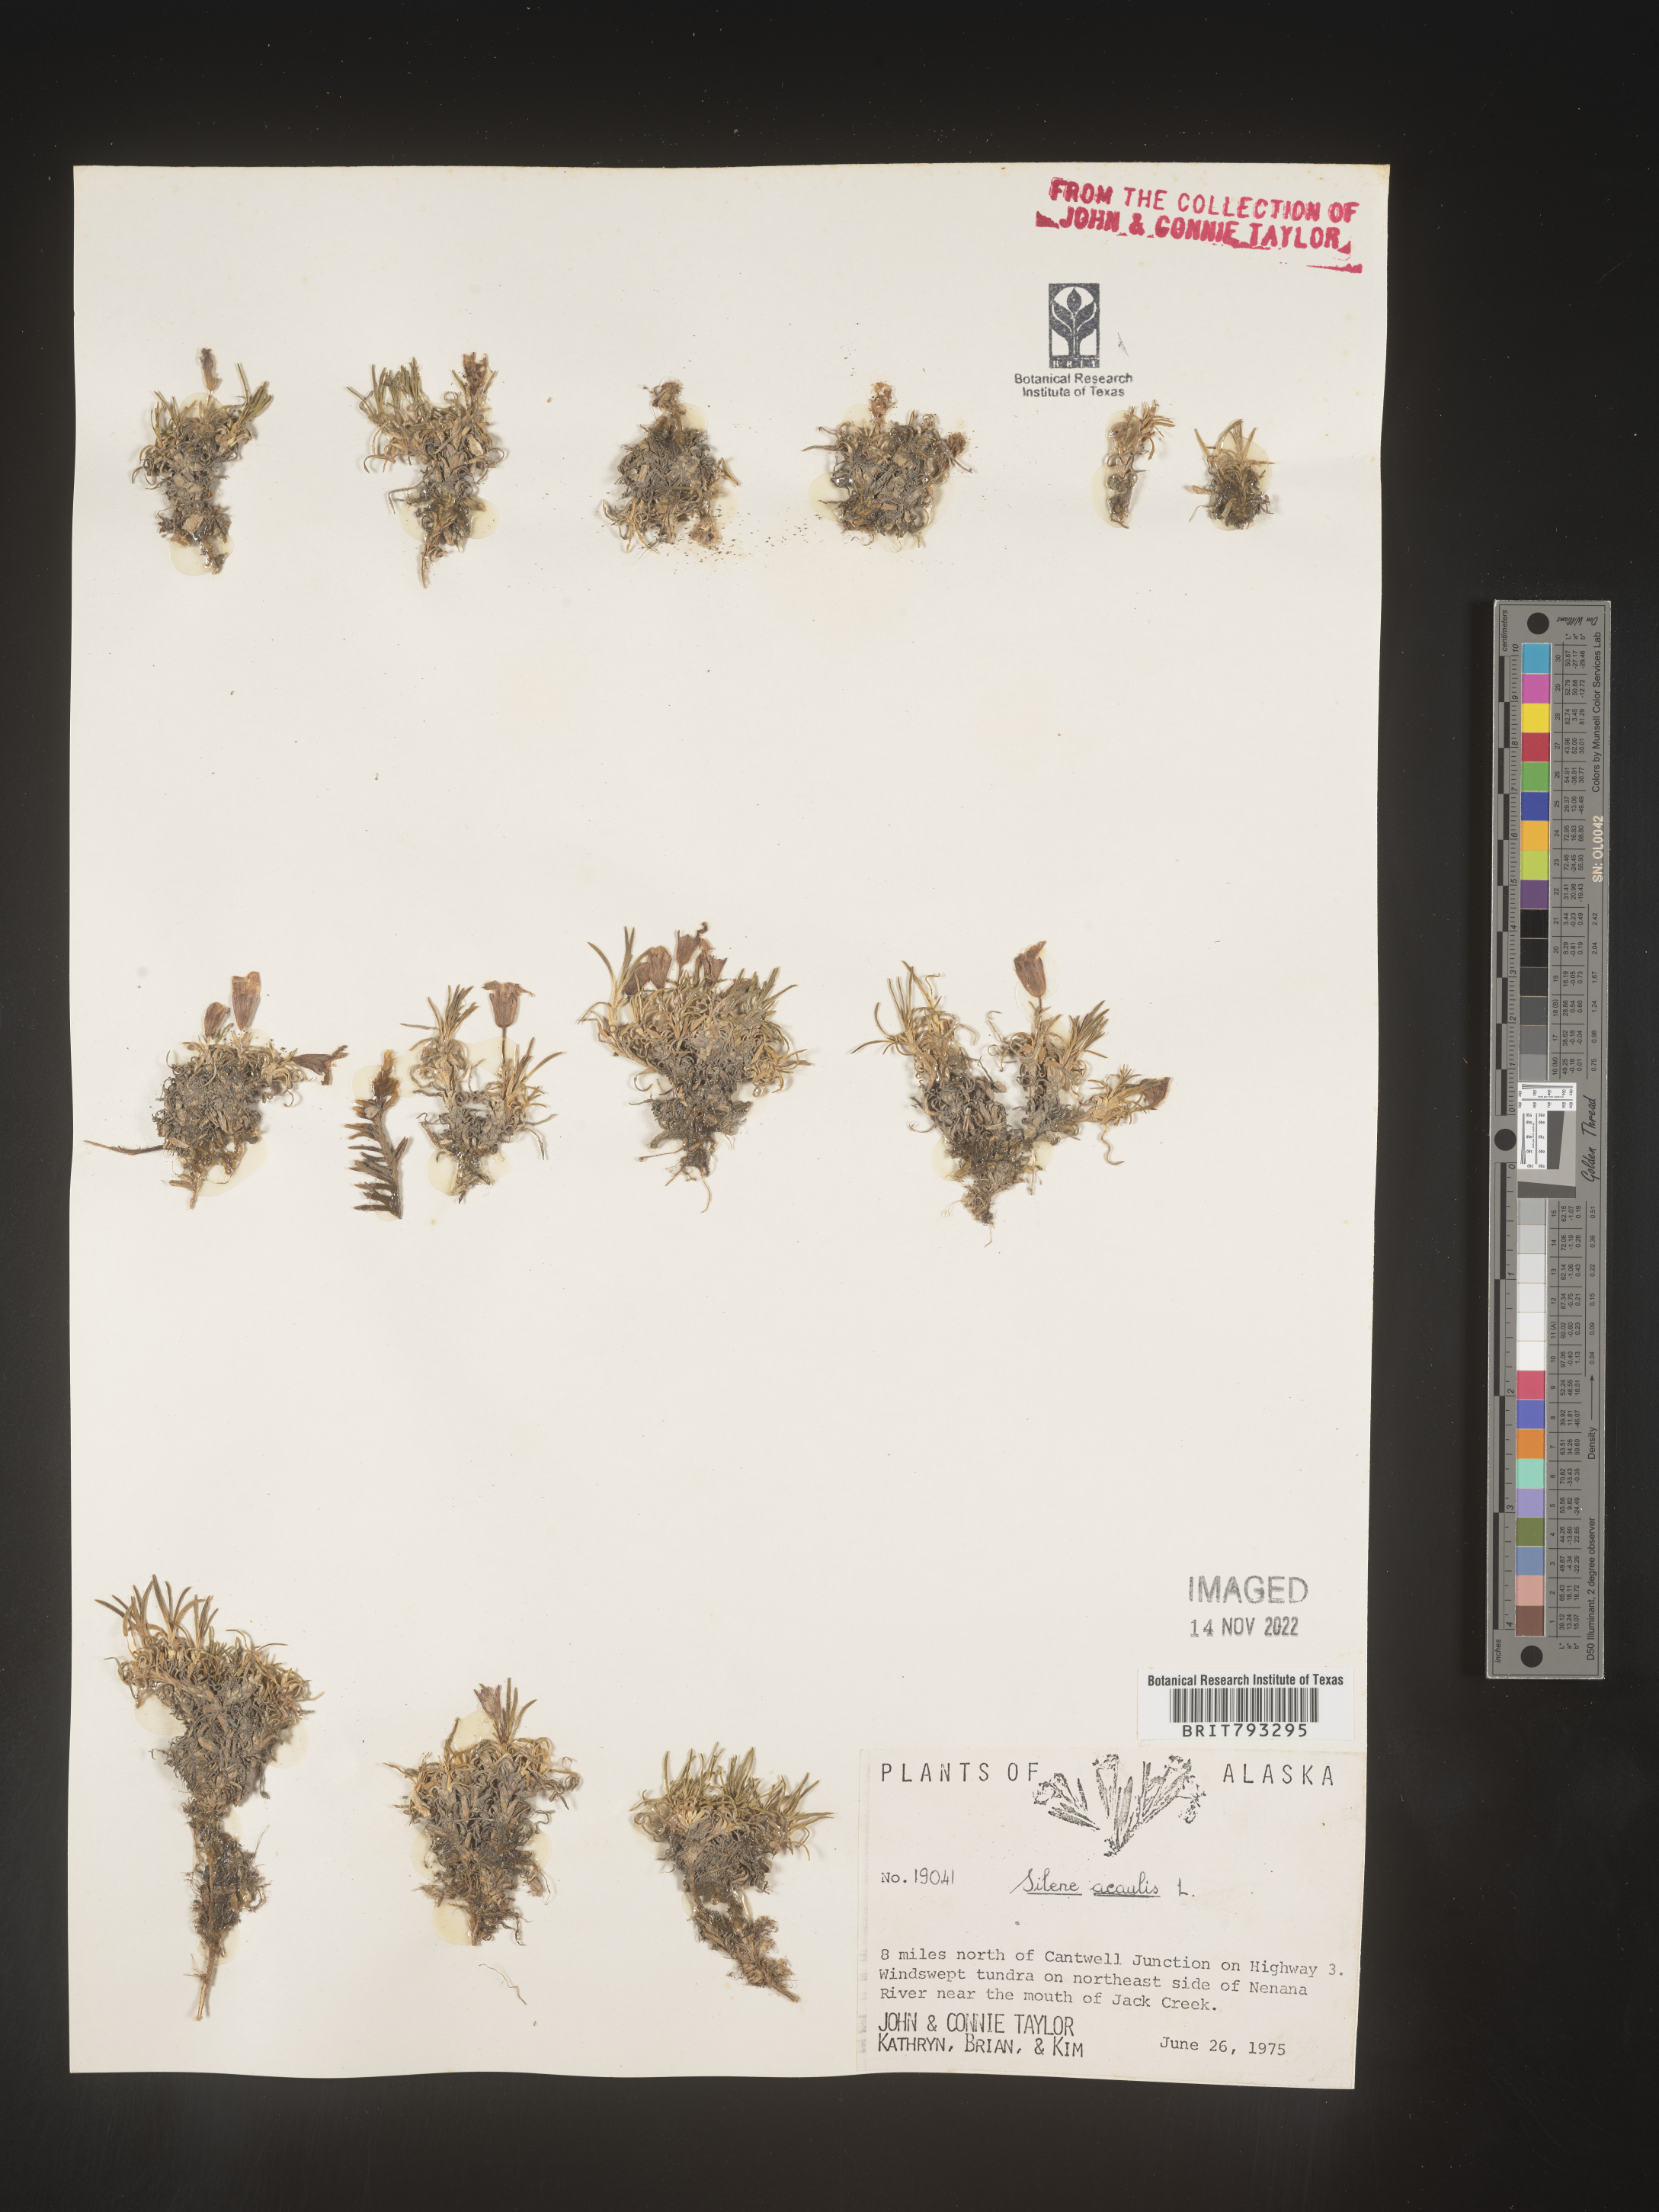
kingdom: Plantae
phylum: Tracheophyta
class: Magnoliopsida
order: Caryophyllales
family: Caryophyllaceae
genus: Silene
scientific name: Silene acaulis
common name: Moss campion
